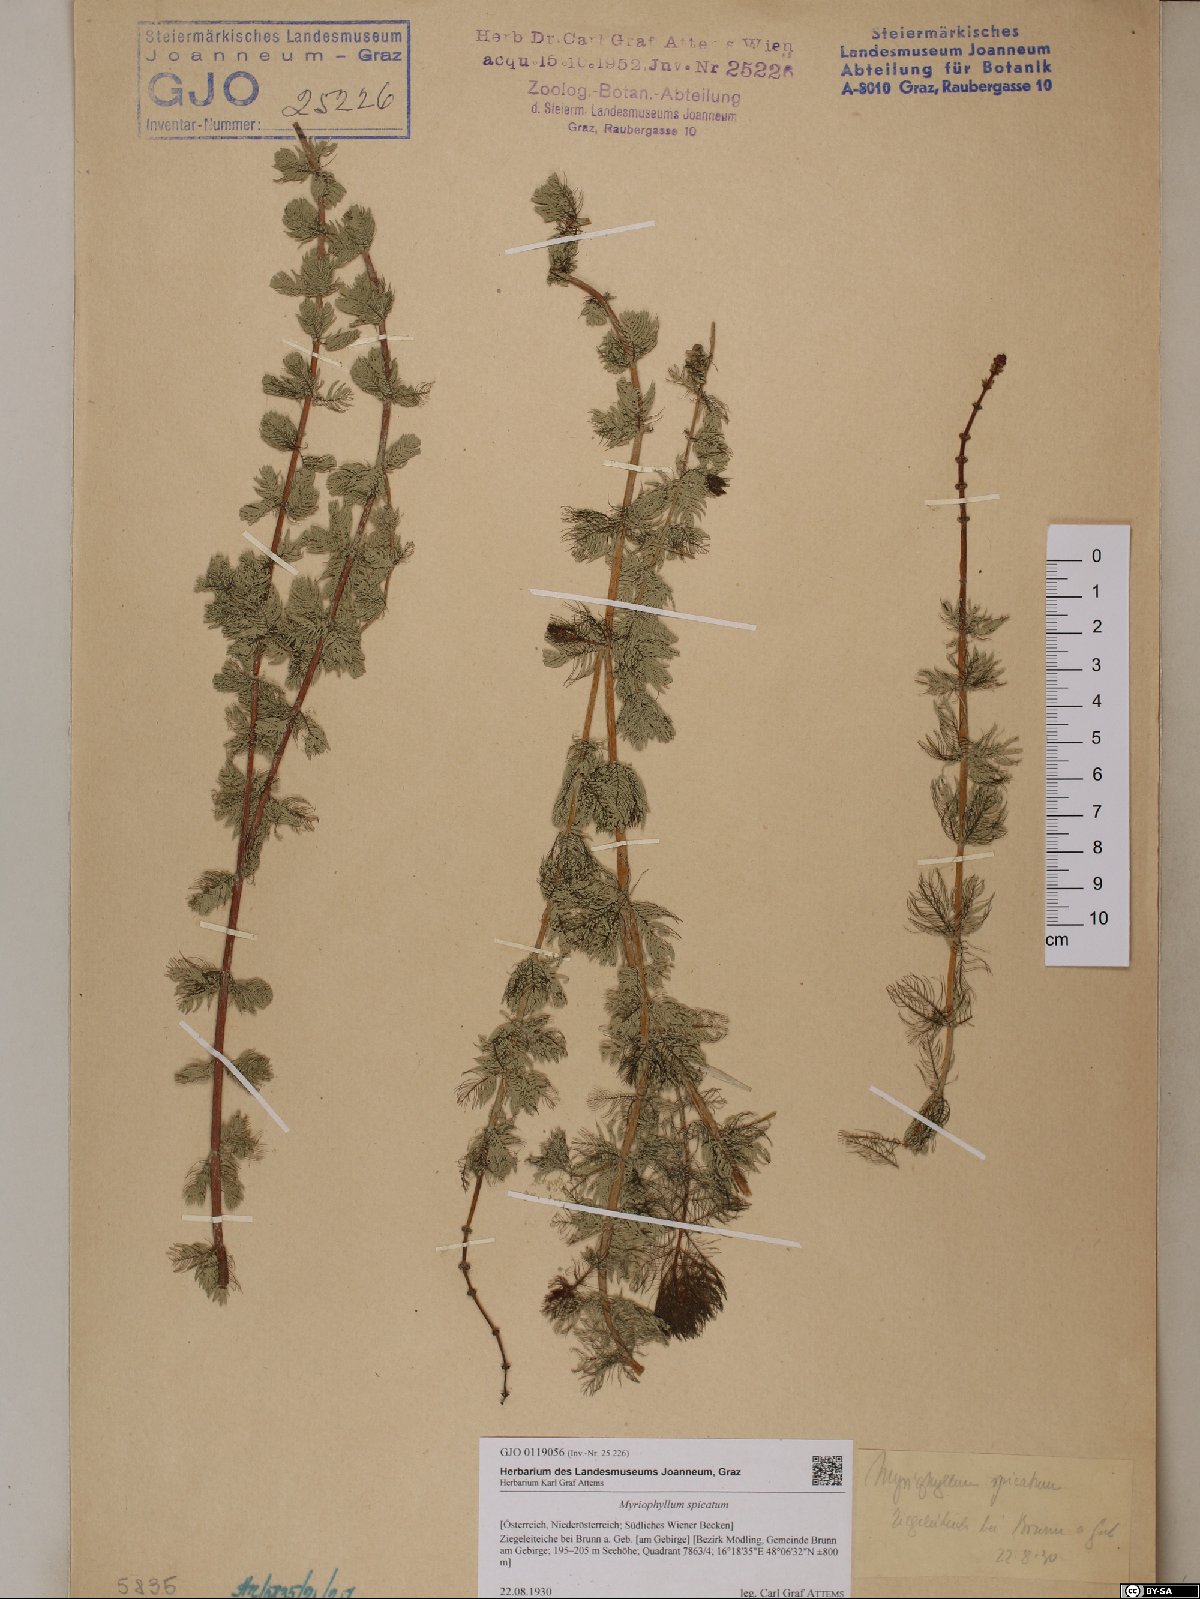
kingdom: Plantae
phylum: Tracheophyta
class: Magnoliopsida
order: Saxifragales
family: Haloragaceae
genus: Myriophyllum
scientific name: Myriophyllum spicatum
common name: Spiked water-milfoil
